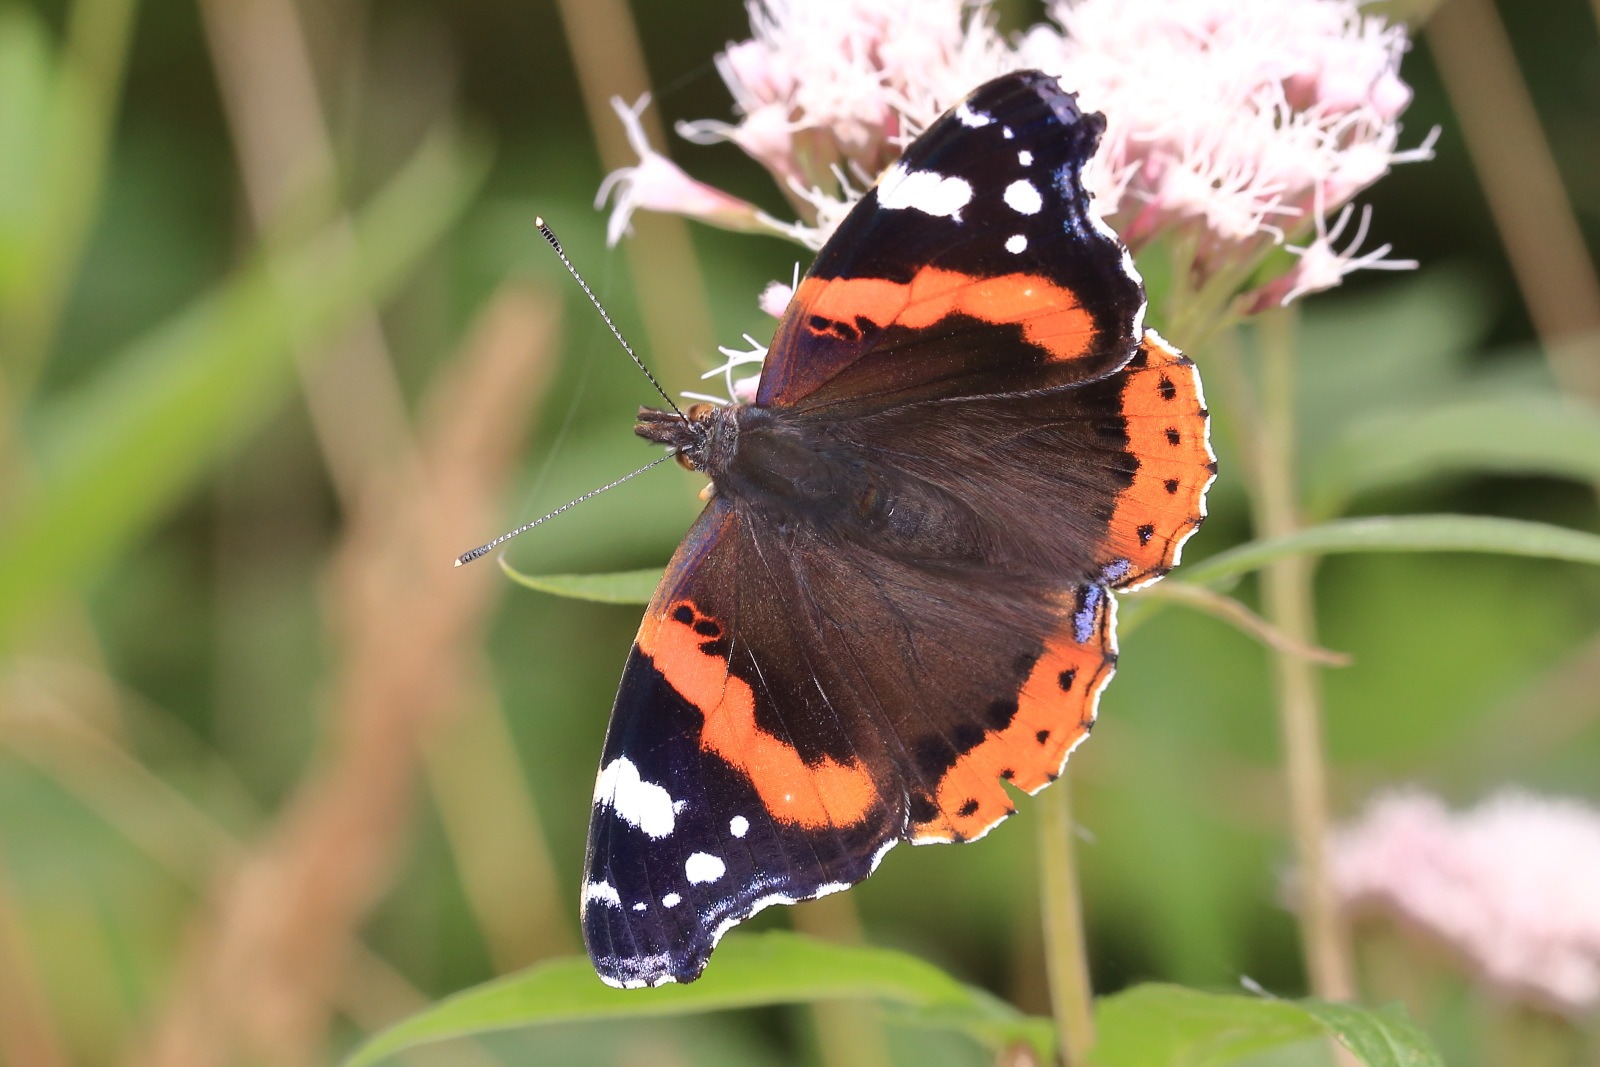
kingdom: Animalia
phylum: Arthropoda
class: Insecta
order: Lepidoptera
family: Nymphalidae
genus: Vanessa
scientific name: Vanessa atalanta
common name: Admiral
